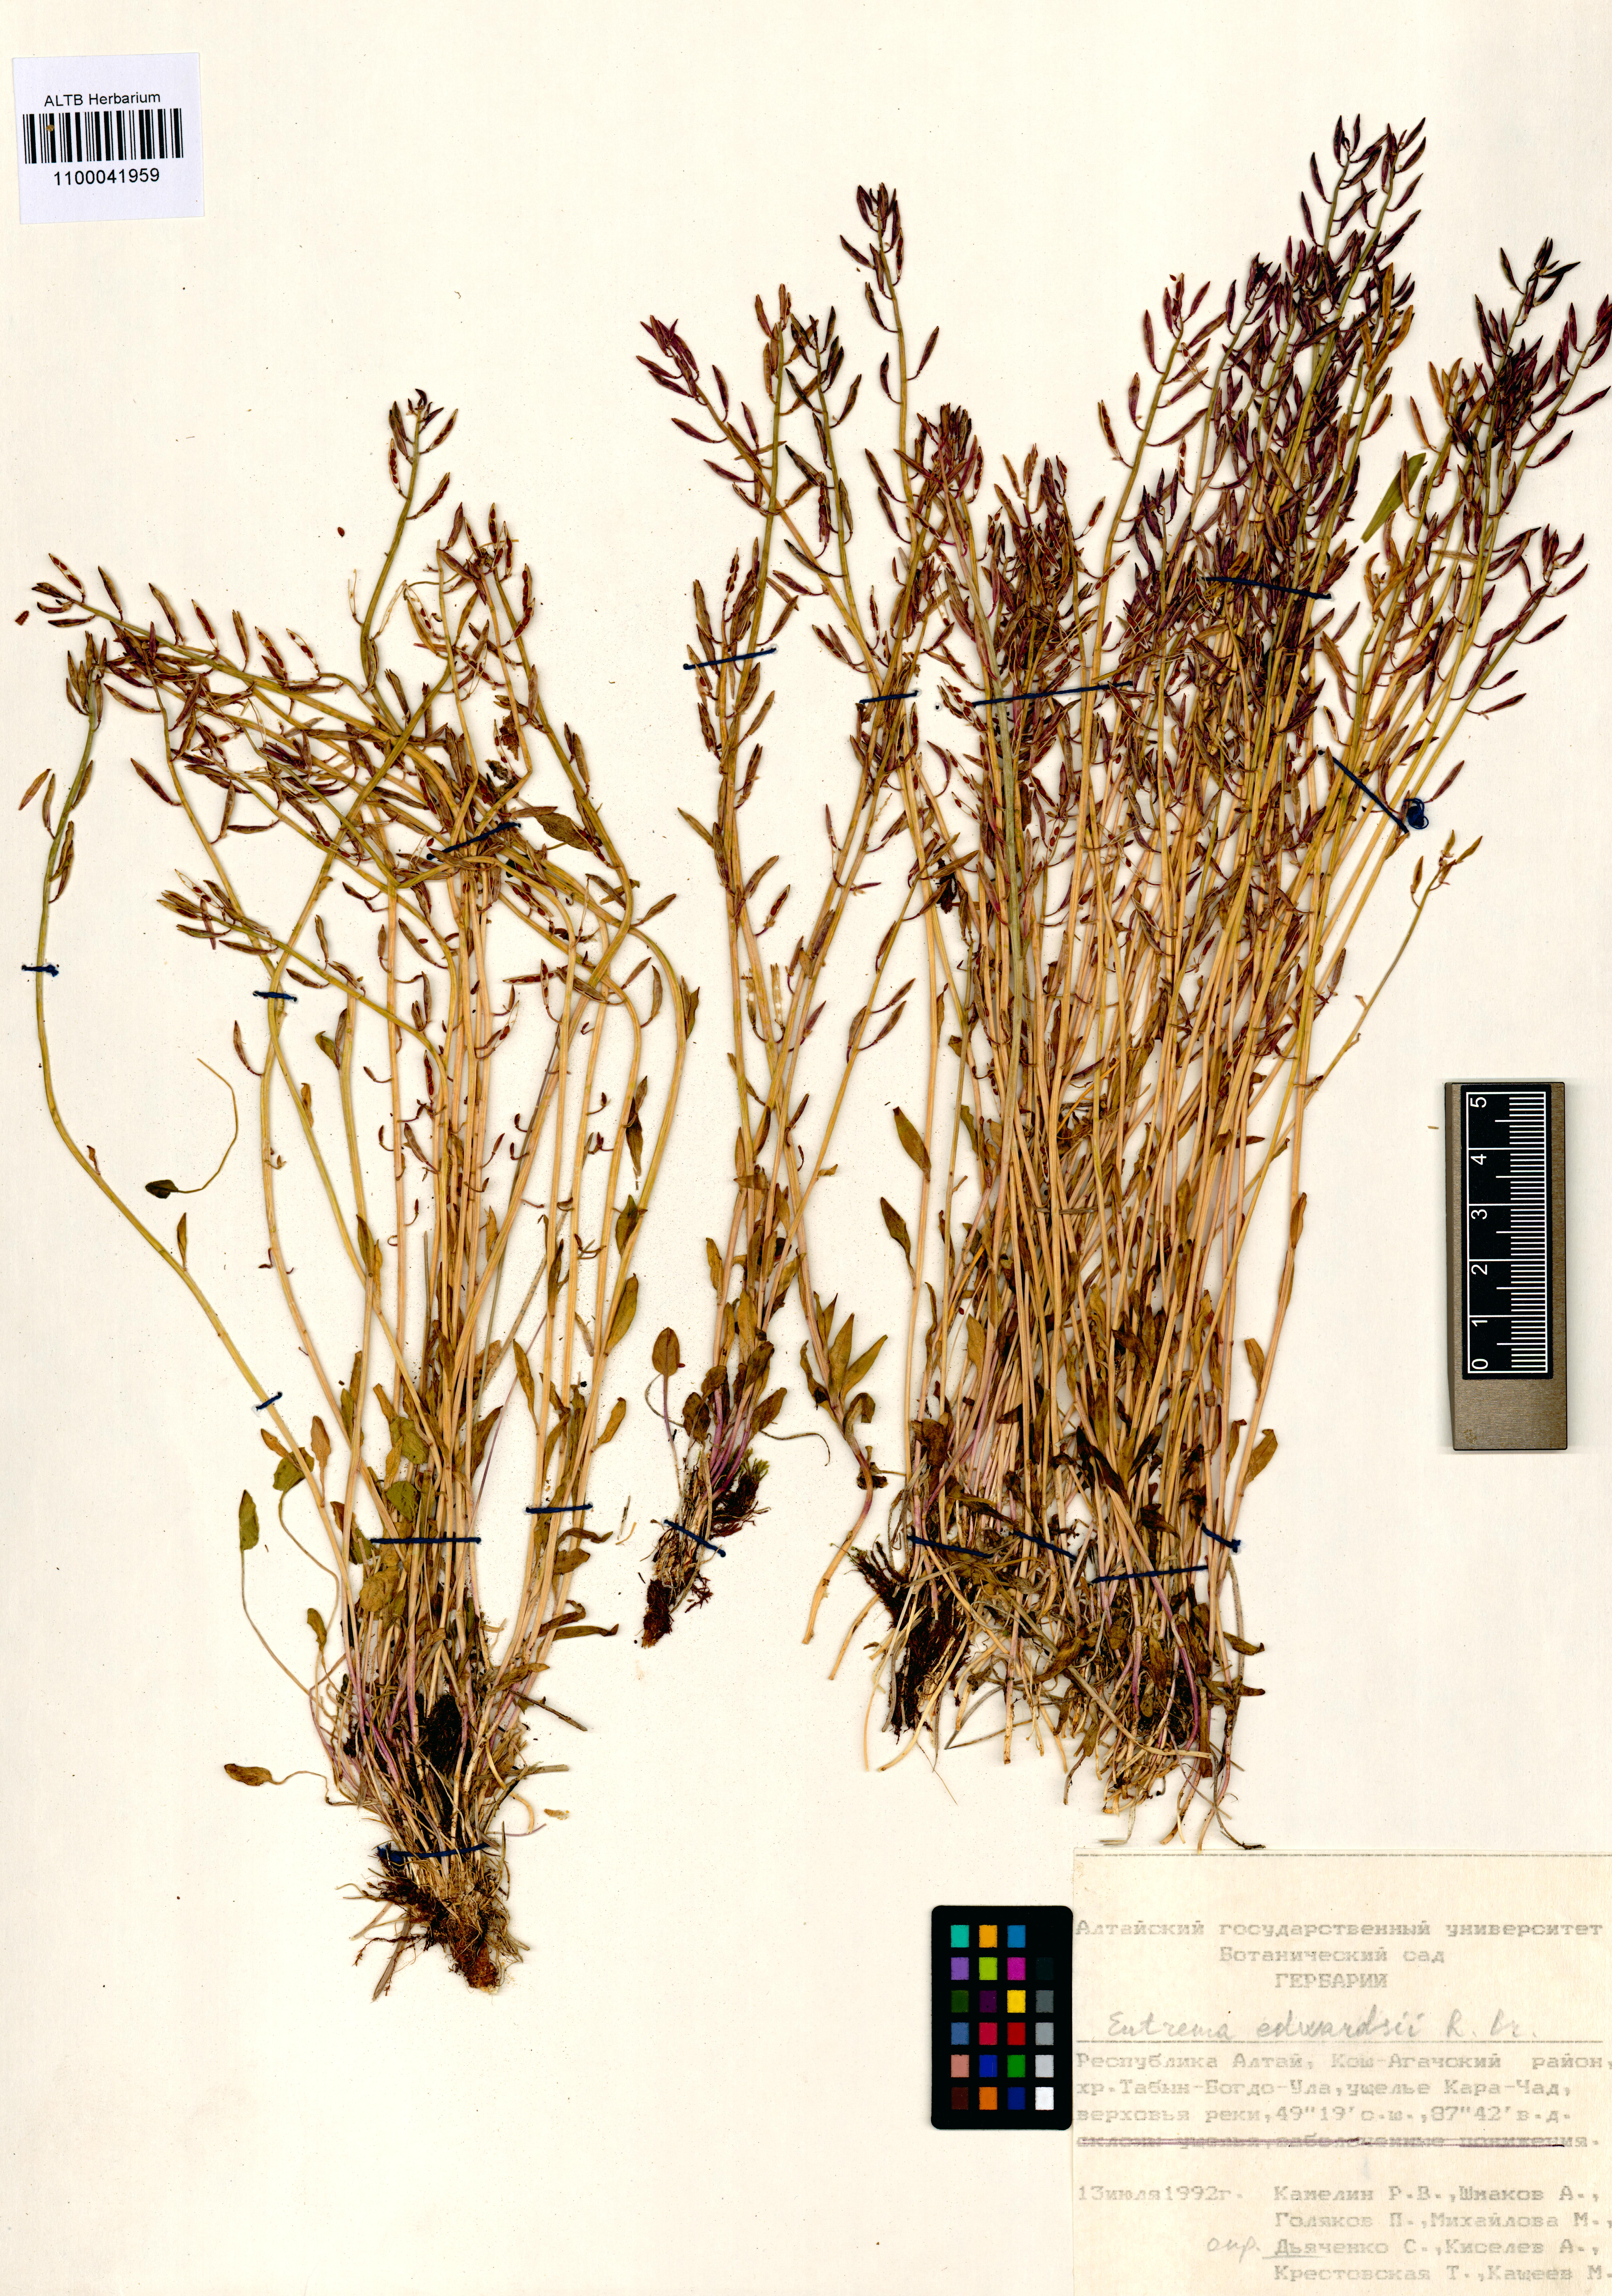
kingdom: Plantae
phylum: Tracheophyta
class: Magnoliopsida
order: Brassicales
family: Brassicaceae
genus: Eutrema
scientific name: Eutrema edwardsii
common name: Penland alpine fen mustard
